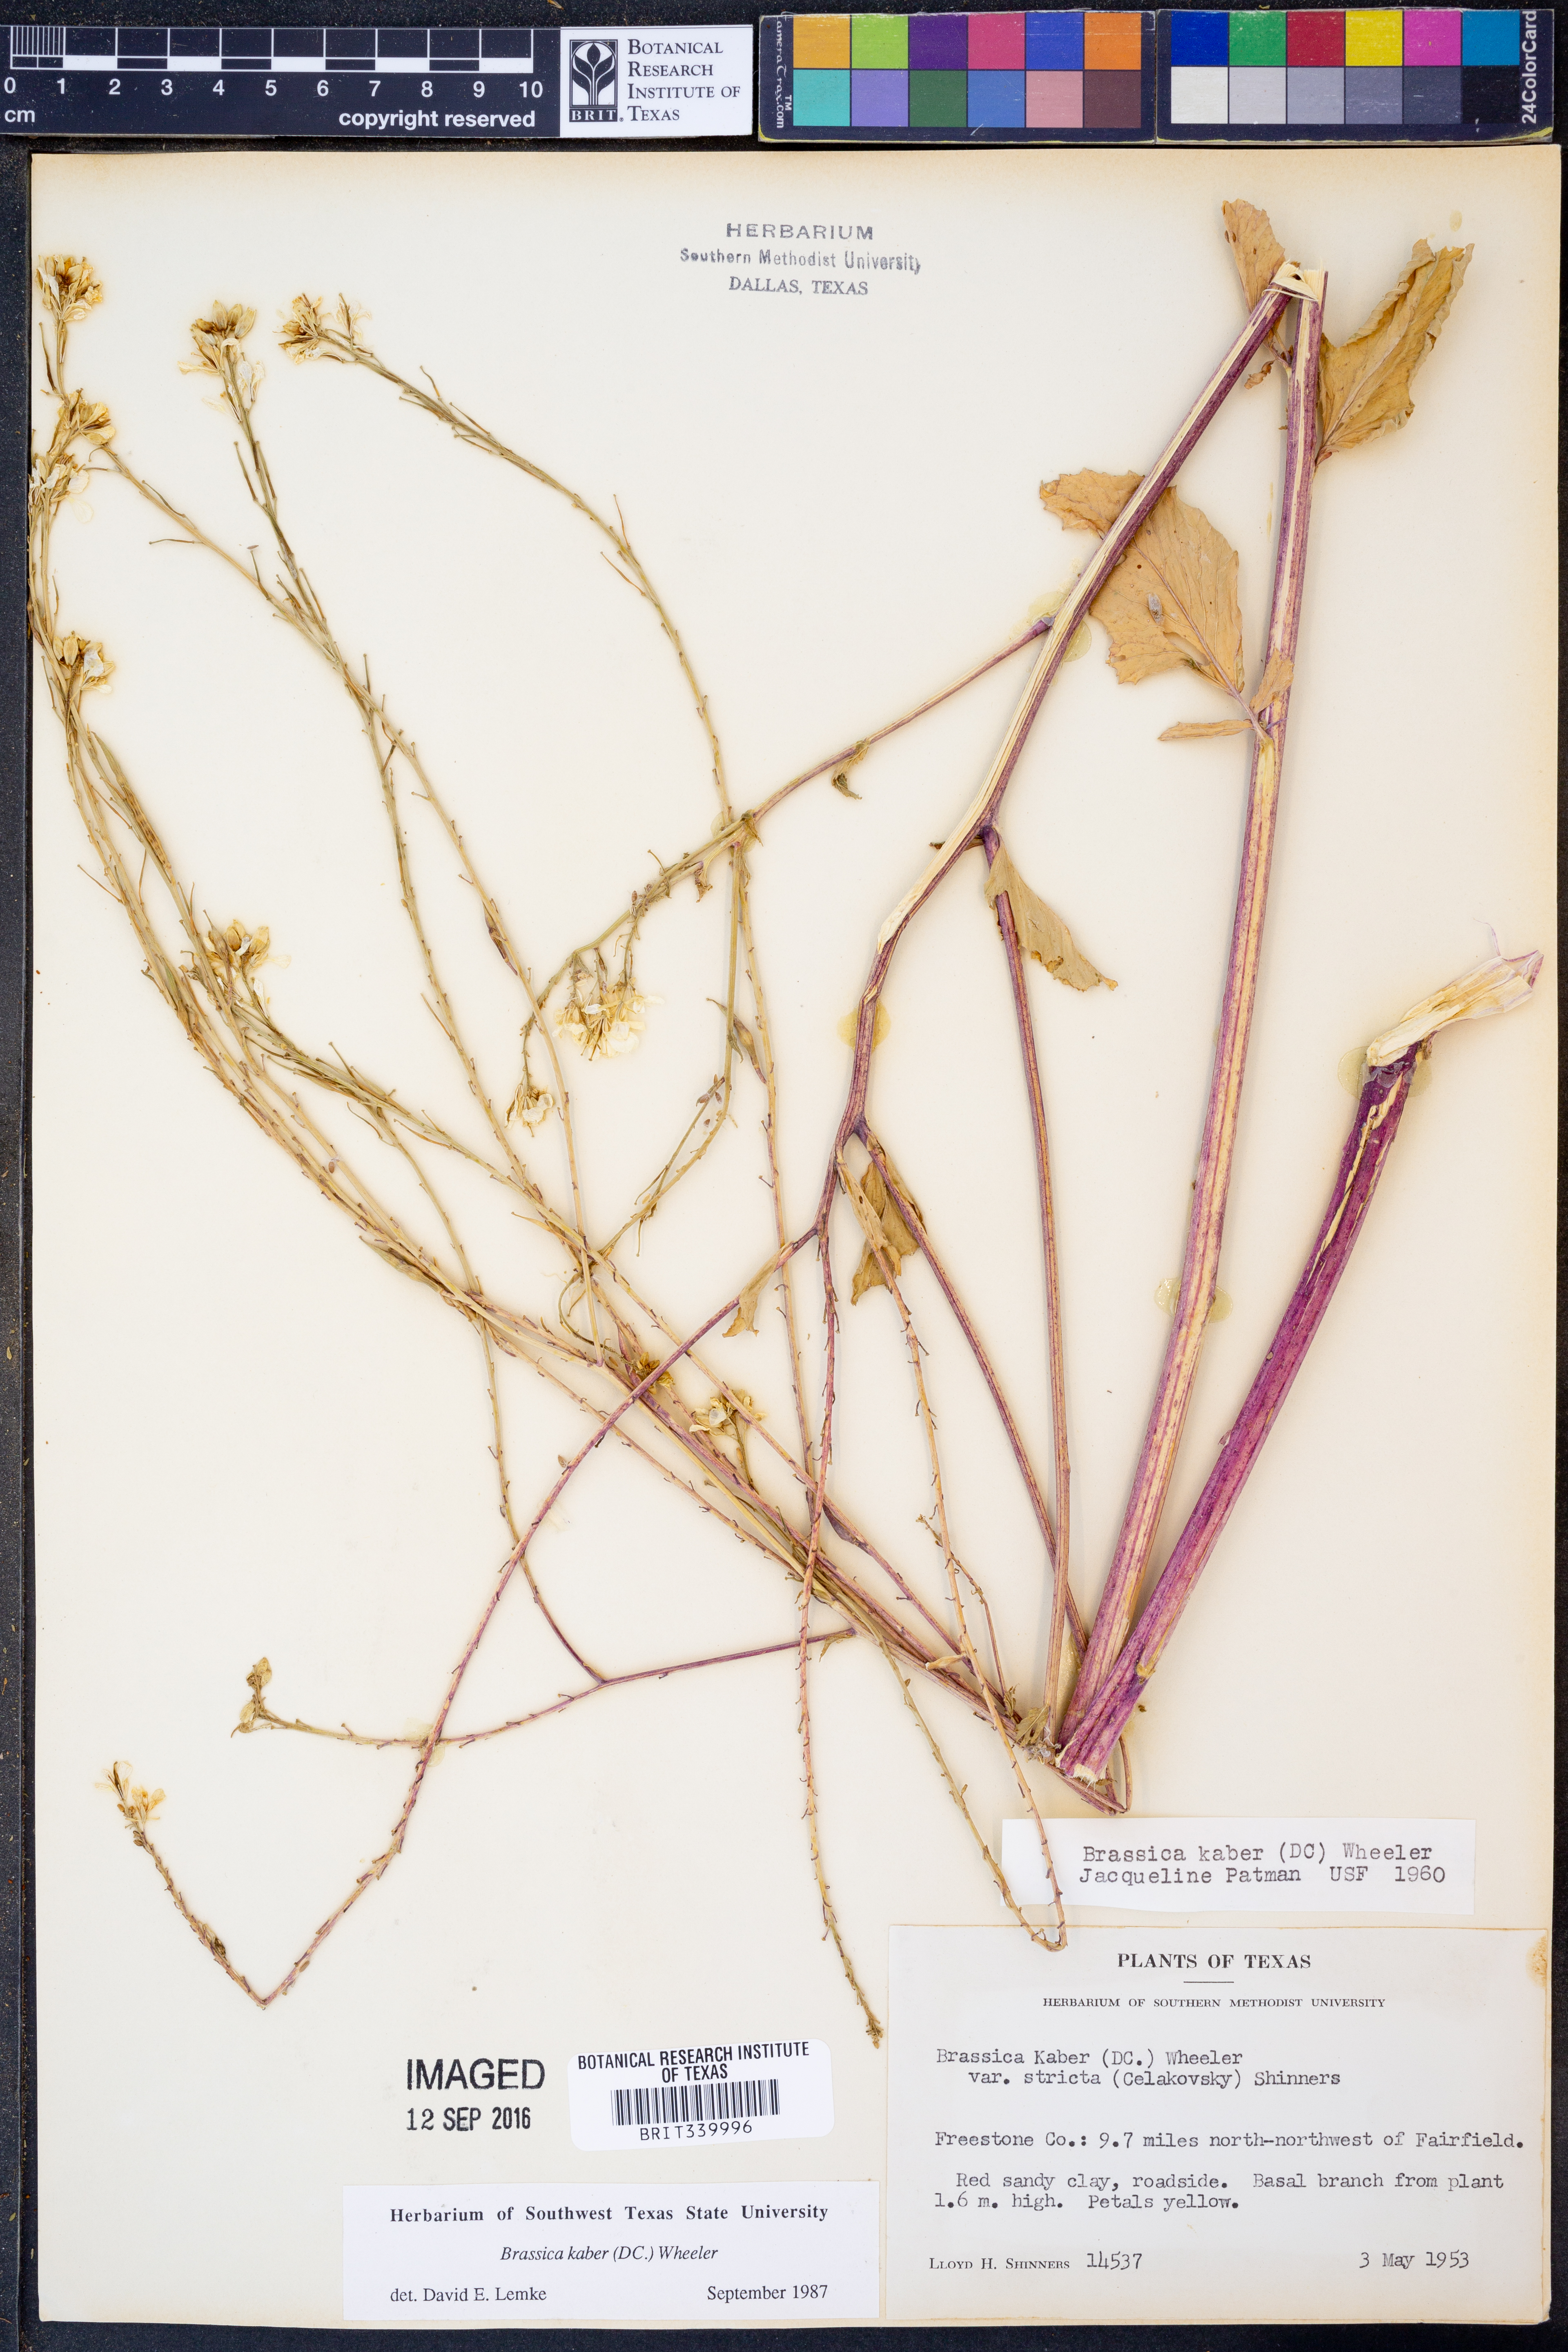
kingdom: Plantae
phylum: Tracheophyta
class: Magnoliopsida
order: Brassicales
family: Brassicaceae
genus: Sinapis
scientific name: Sinapis arvensis
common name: Charlock
